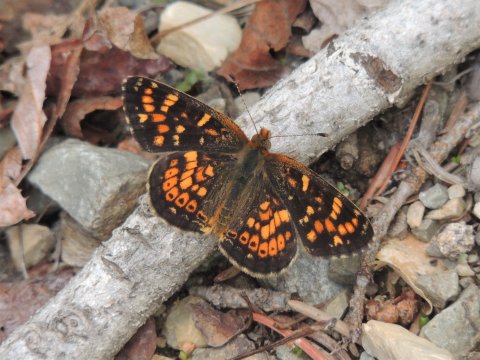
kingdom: Animalia
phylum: Arthropoda
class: Insecta
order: Lepidoptera
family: Nymphalidae
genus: Phyciodes
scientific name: Phyciodes tharos
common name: Field Crescent
